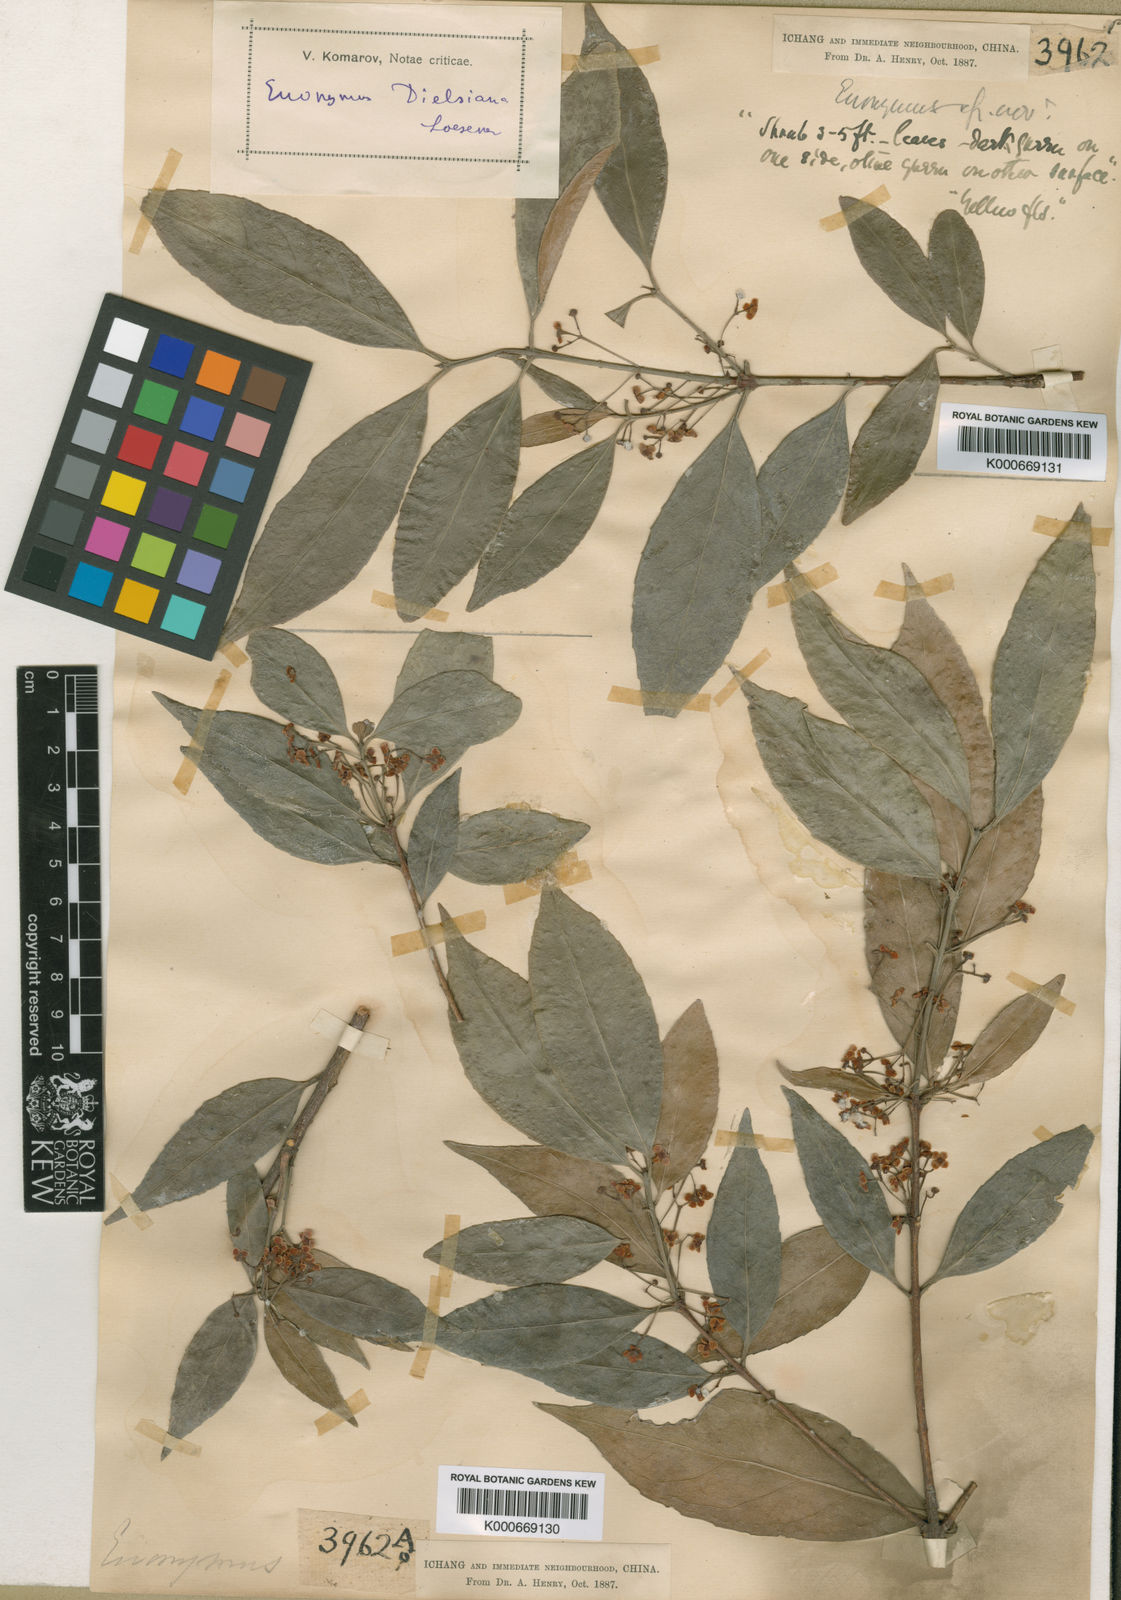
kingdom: Plantae
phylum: Tracheophyta
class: Magnoliopsida
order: Celastrales
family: Celastraceae
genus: Euonymus
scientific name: Euonymus dielsianus
